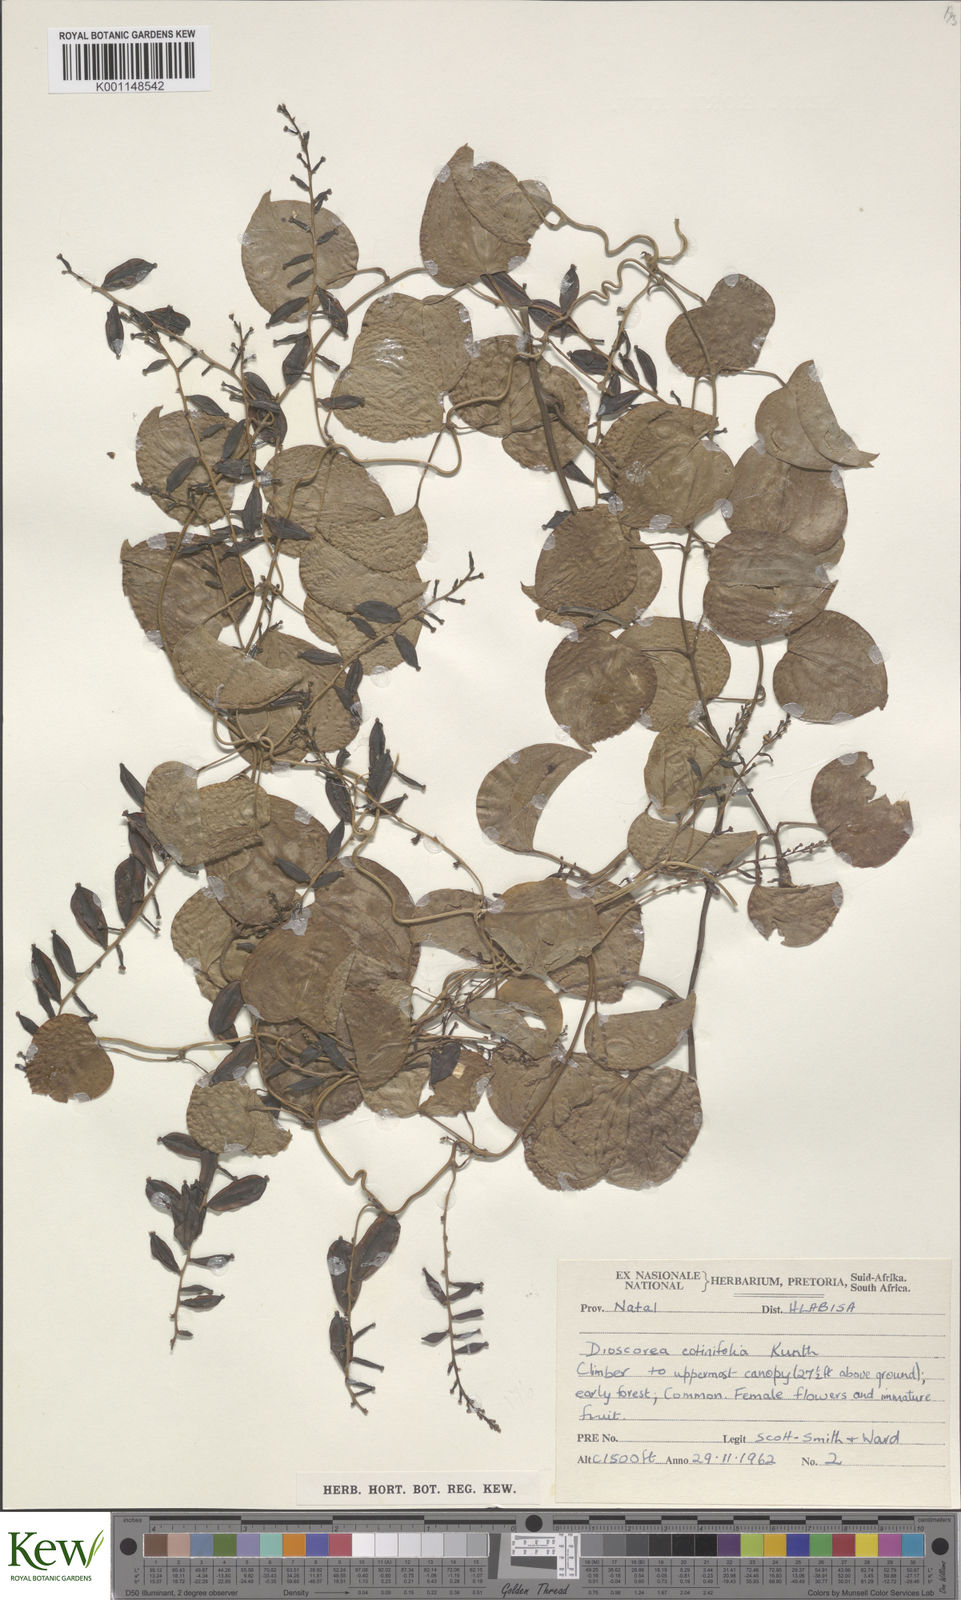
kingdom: Plantae
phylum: Tracheophyta
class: Liliopsida
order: Dioscoreales
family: Dioscoreaceae
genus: Dioscorea
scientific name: Dioscorea cotinifolia
